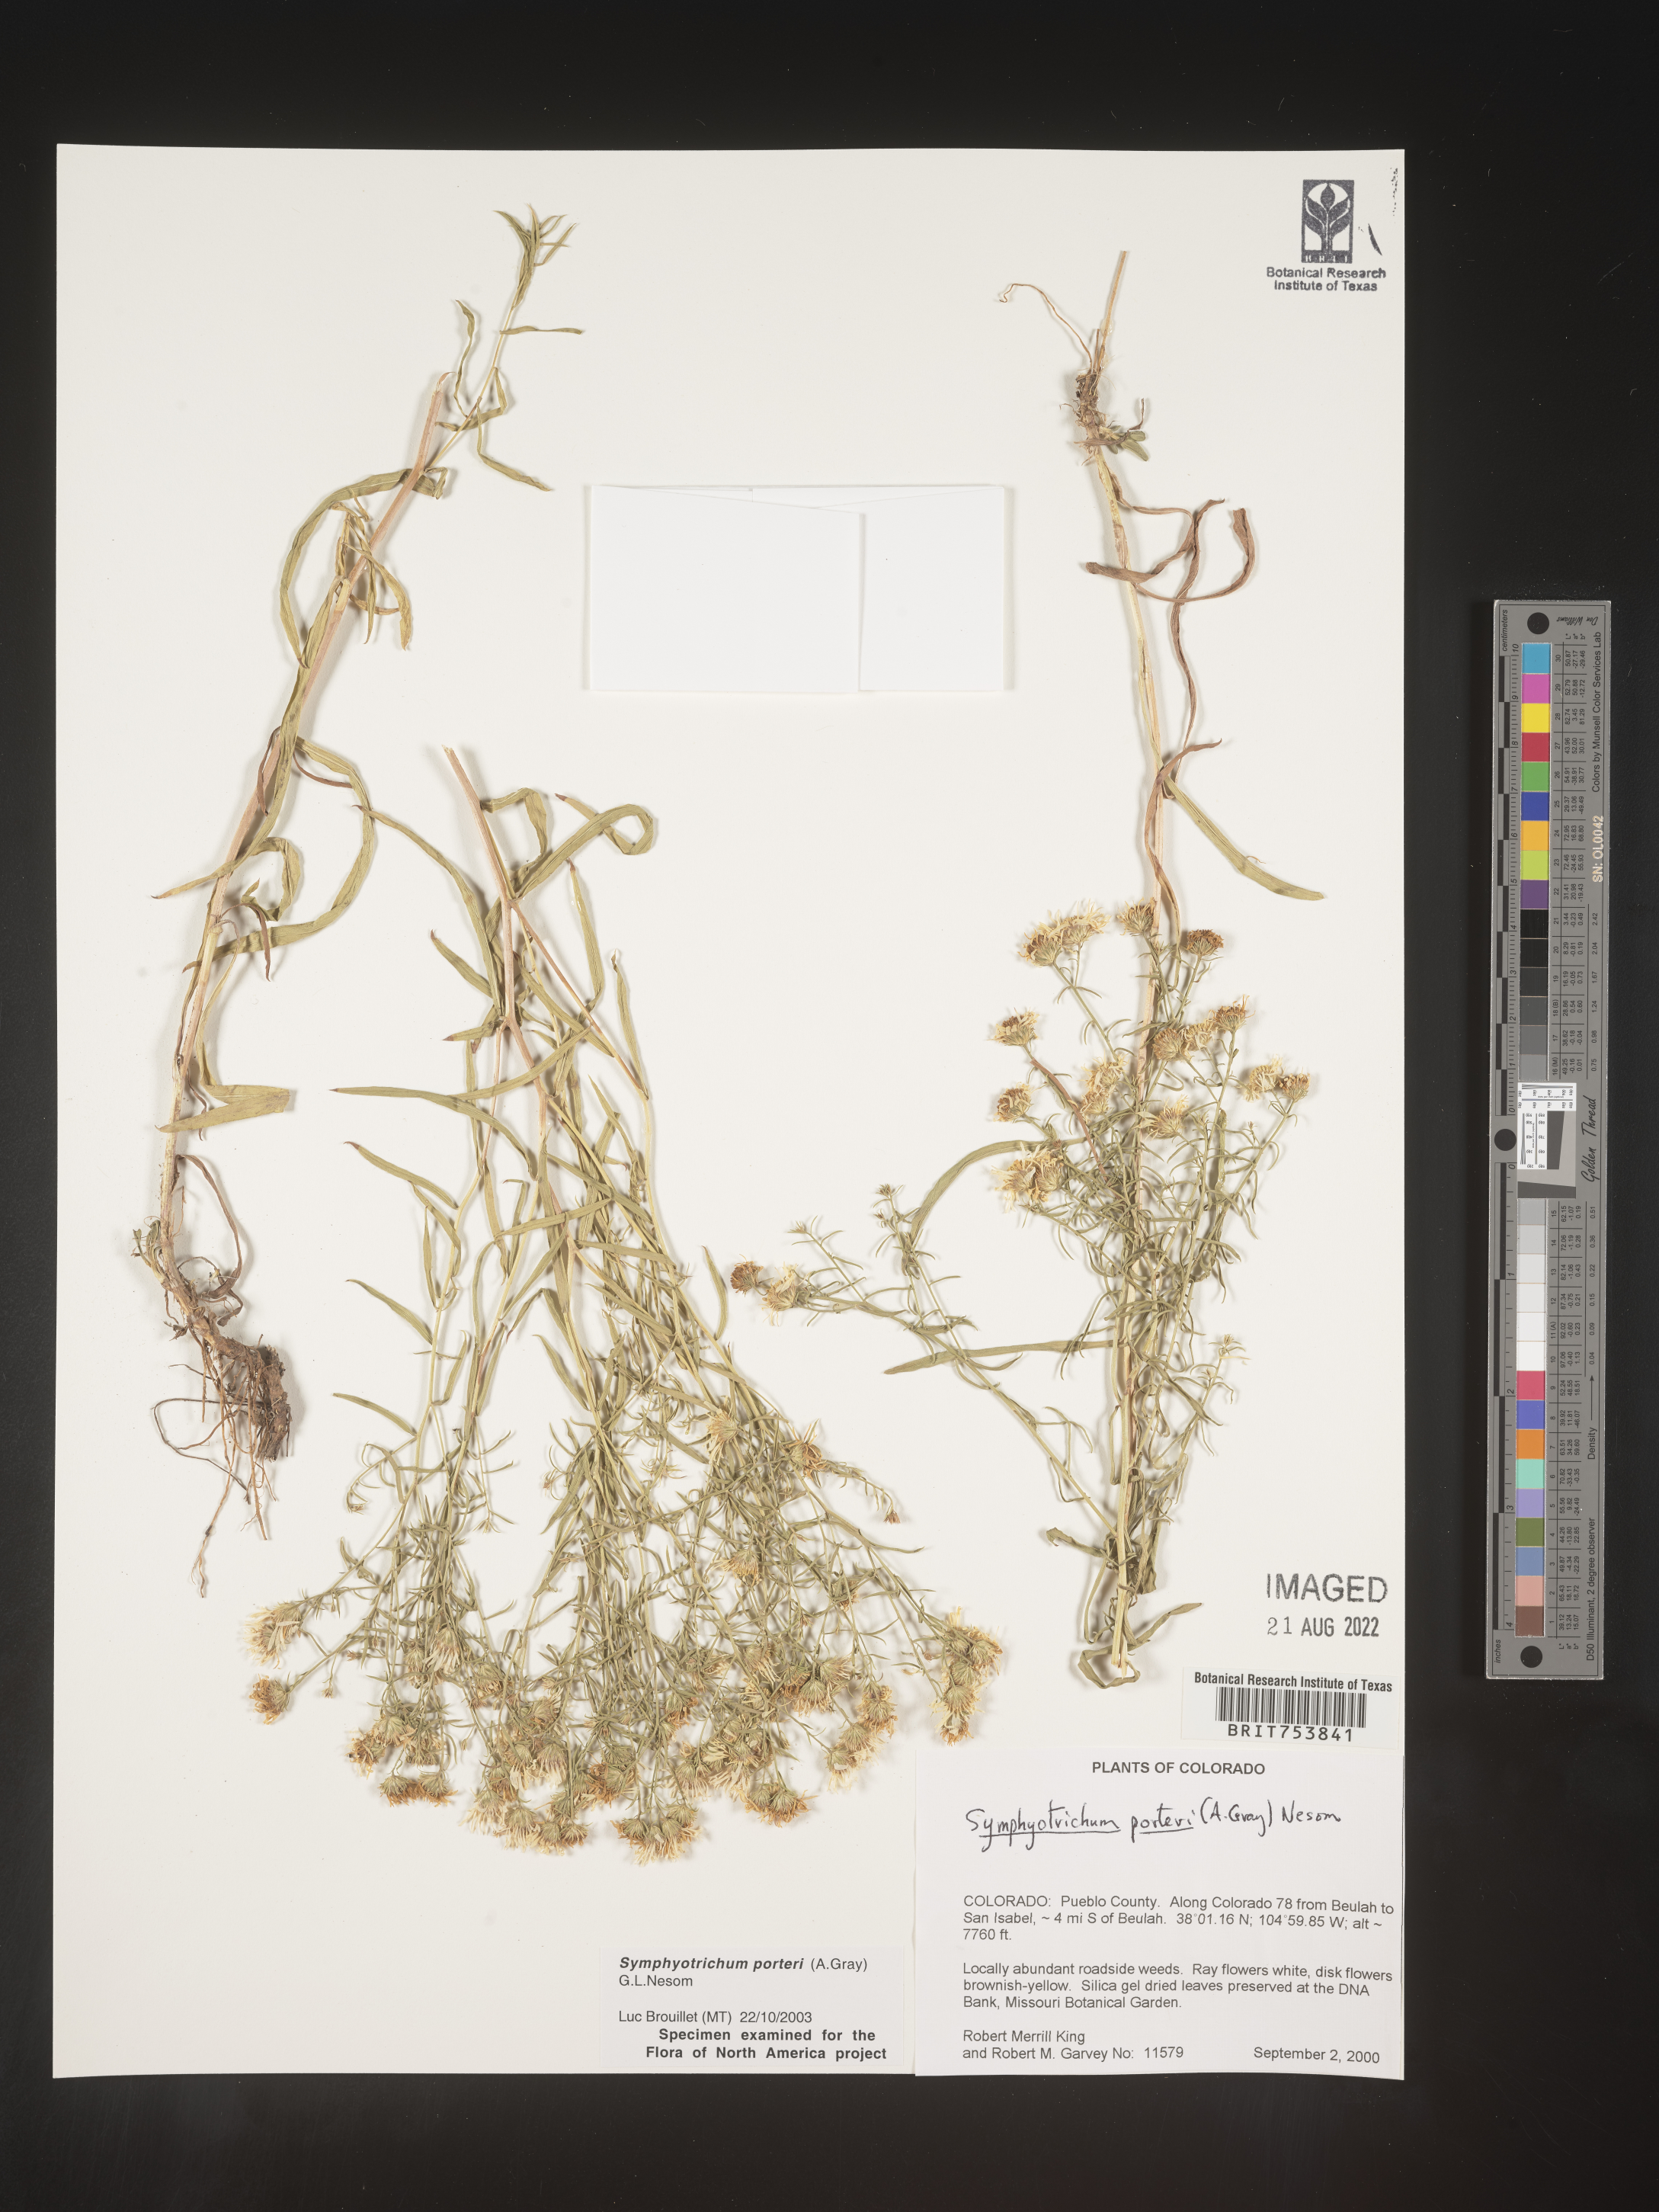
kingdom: Plantae
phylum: Tracheophyta
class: Magnoliopsida
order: Asterales
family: Asteraceae
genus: Symphyotrichum
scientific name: Symphyotrichum porteri
